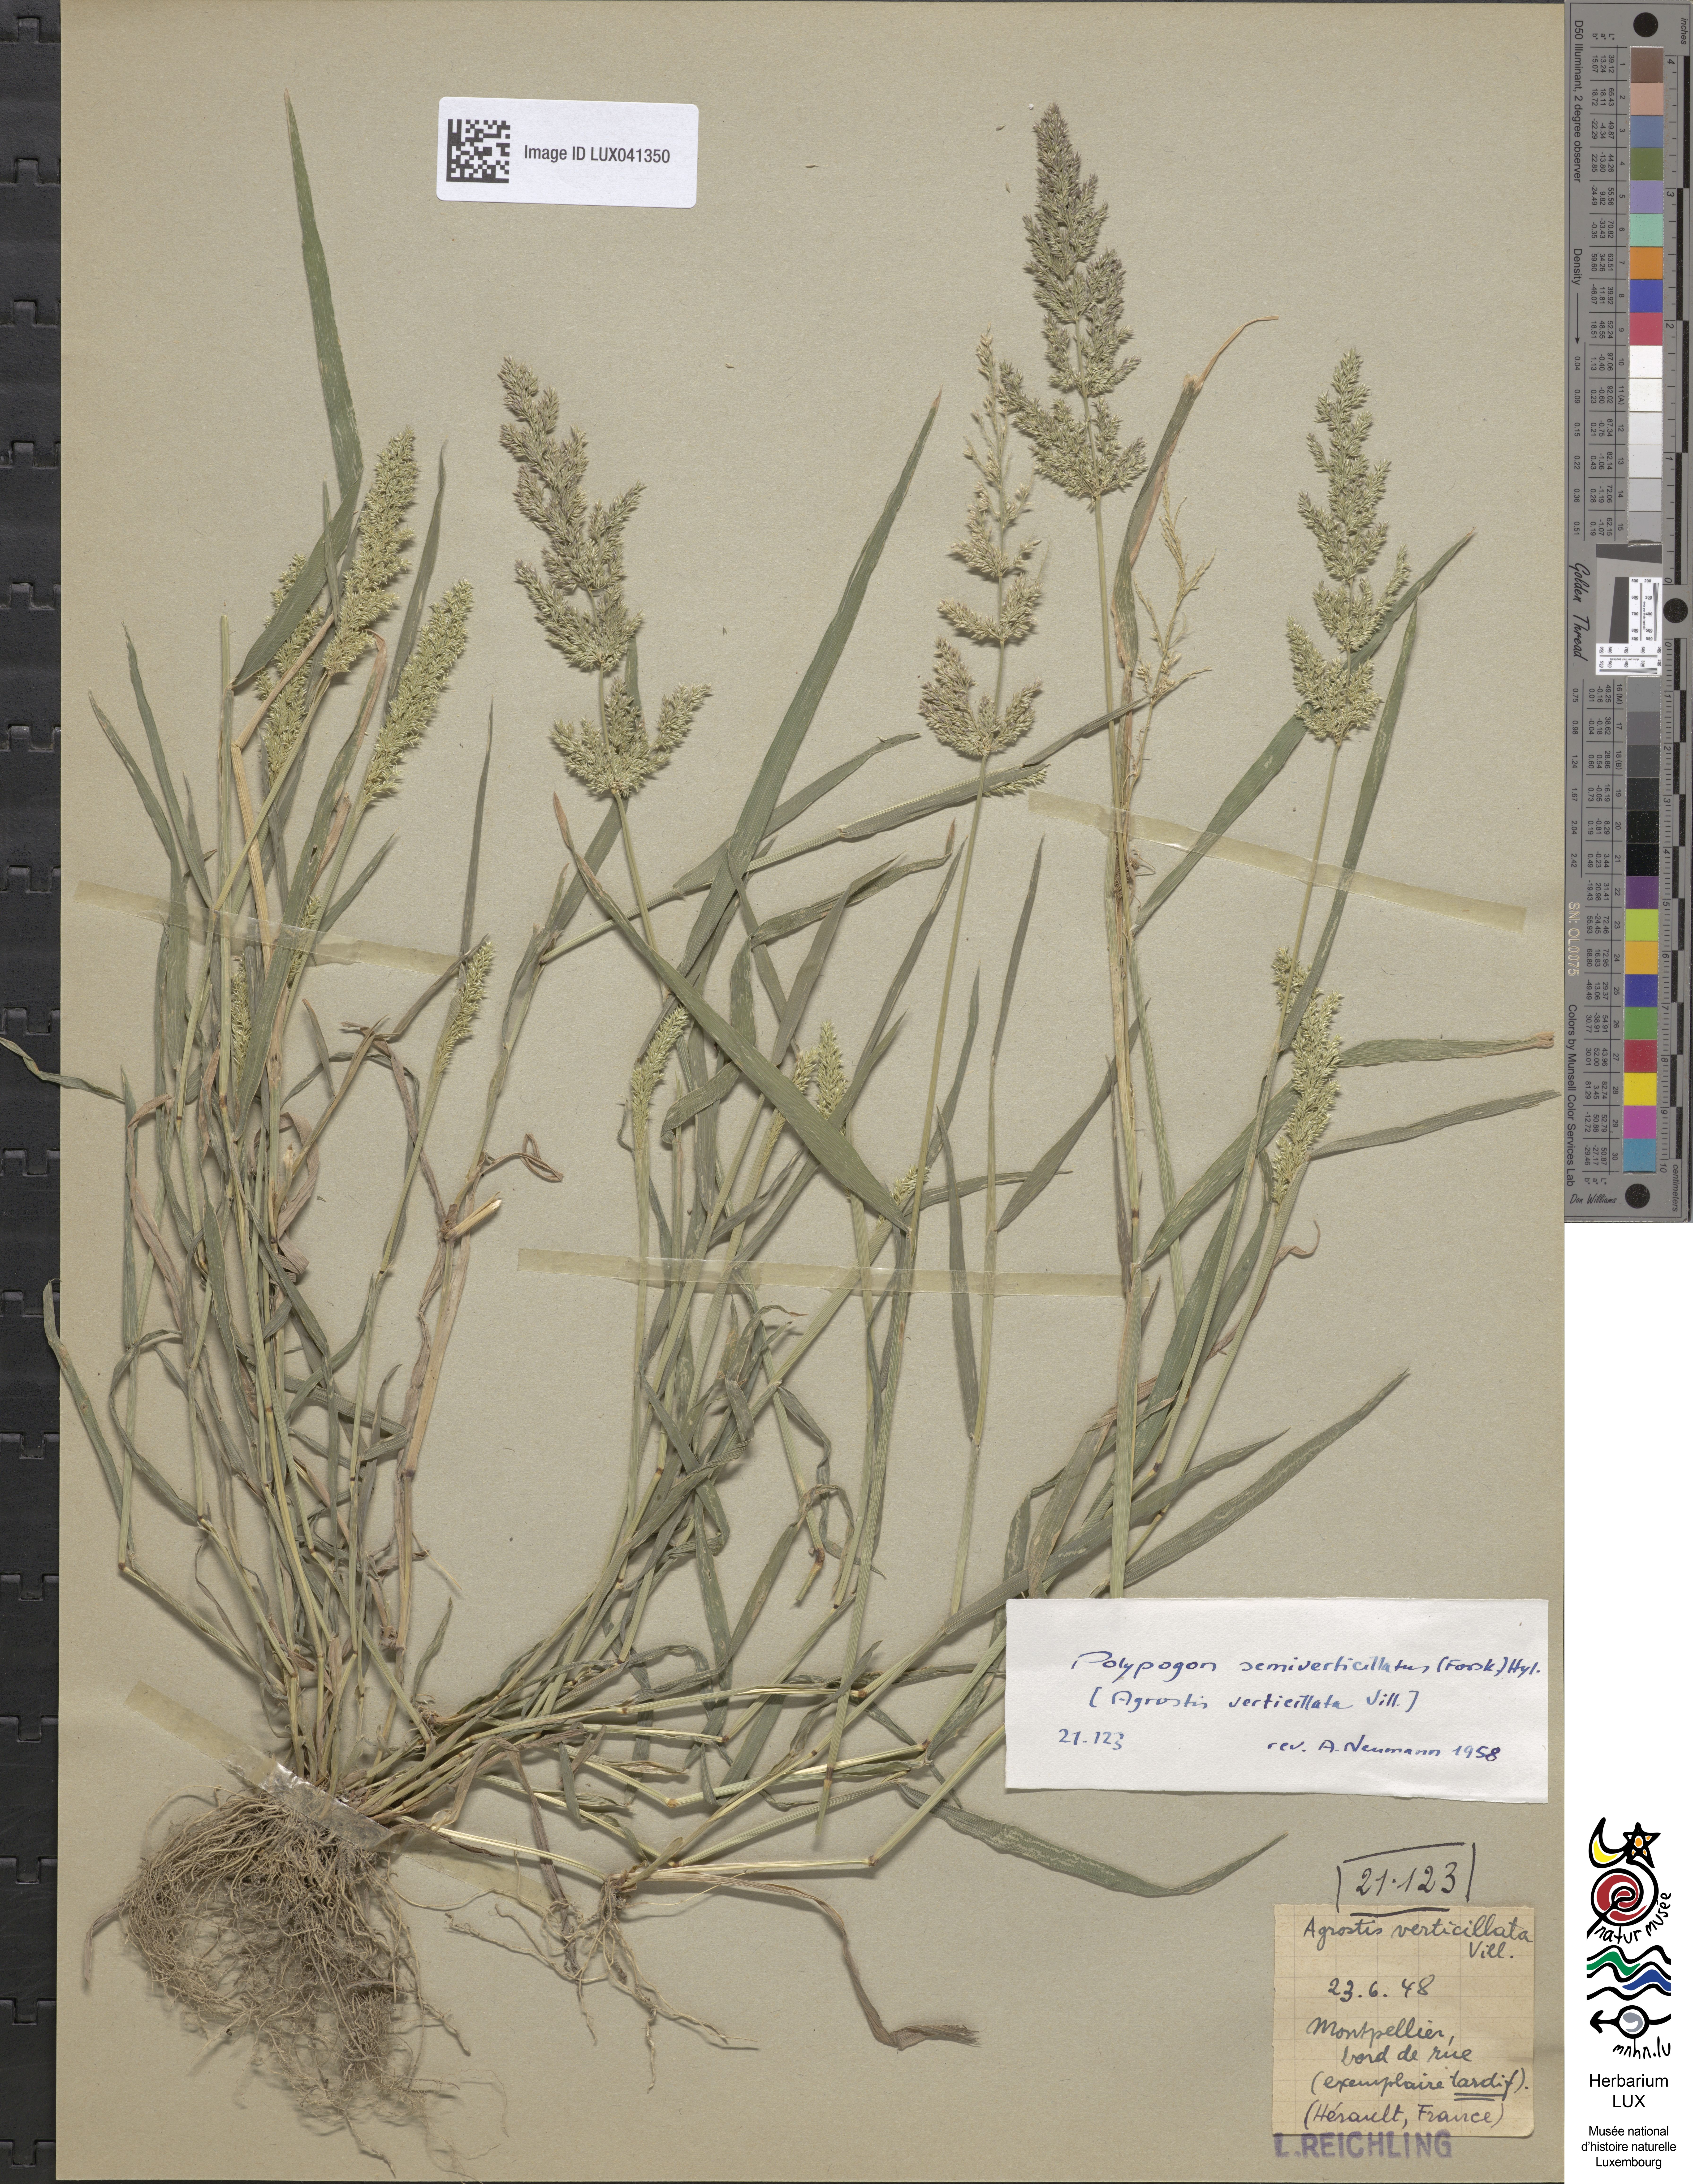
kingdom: Plantae
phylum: Tracheophyta
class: Liliopsida
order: Poales
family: Poaceae
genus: Polypogon
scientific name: Polypogon viridis
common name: Water bent
